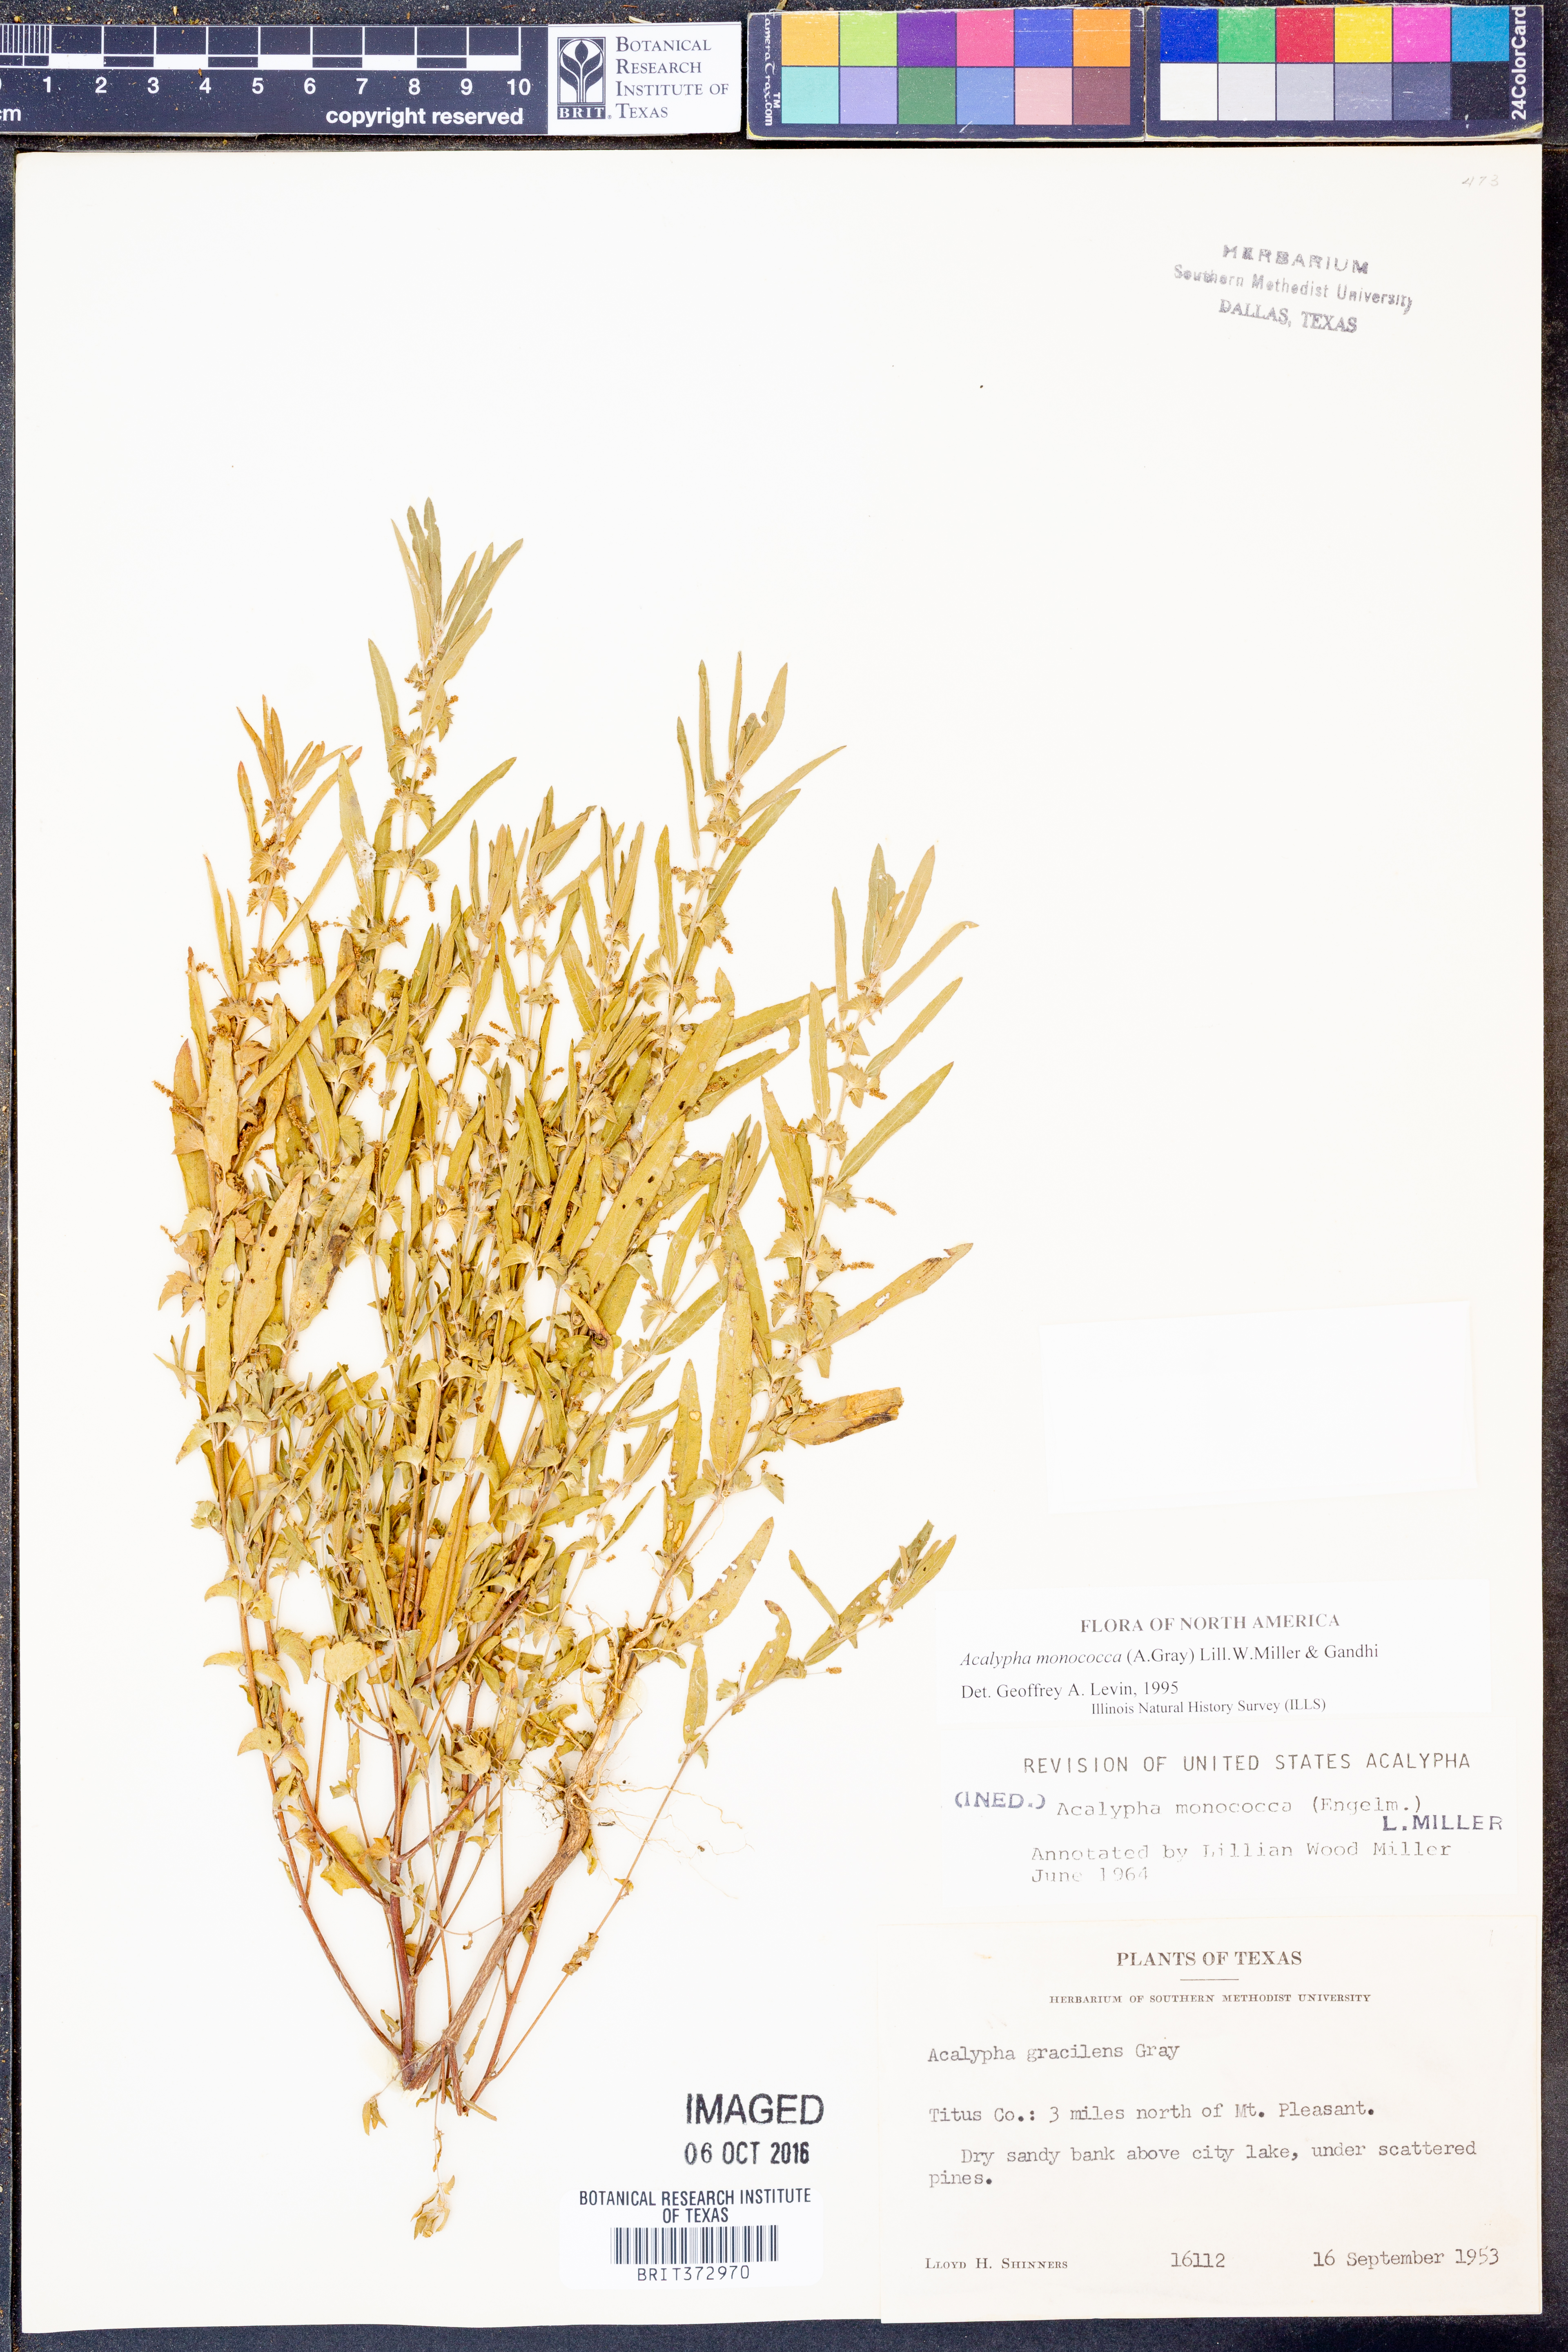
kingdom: Plantae
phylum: Tracheophyta
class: Magnoliopsida
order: Malpighiales
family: Euphorbiaceae
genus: Acalypha
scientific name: Acalypha monococca
